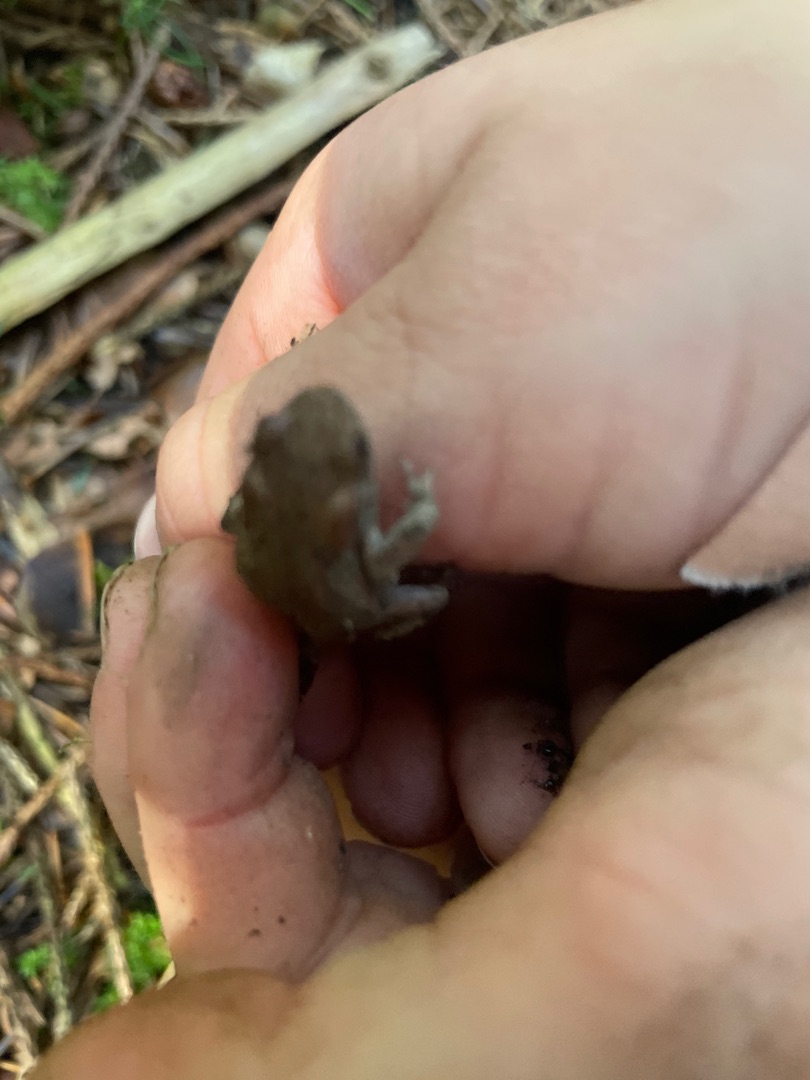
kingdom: Animalia
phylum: Chordata
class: Amphibia
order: Anura
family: Bufonidae
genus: Bufo
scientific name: Bufo bufo
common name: Skrubtudse
